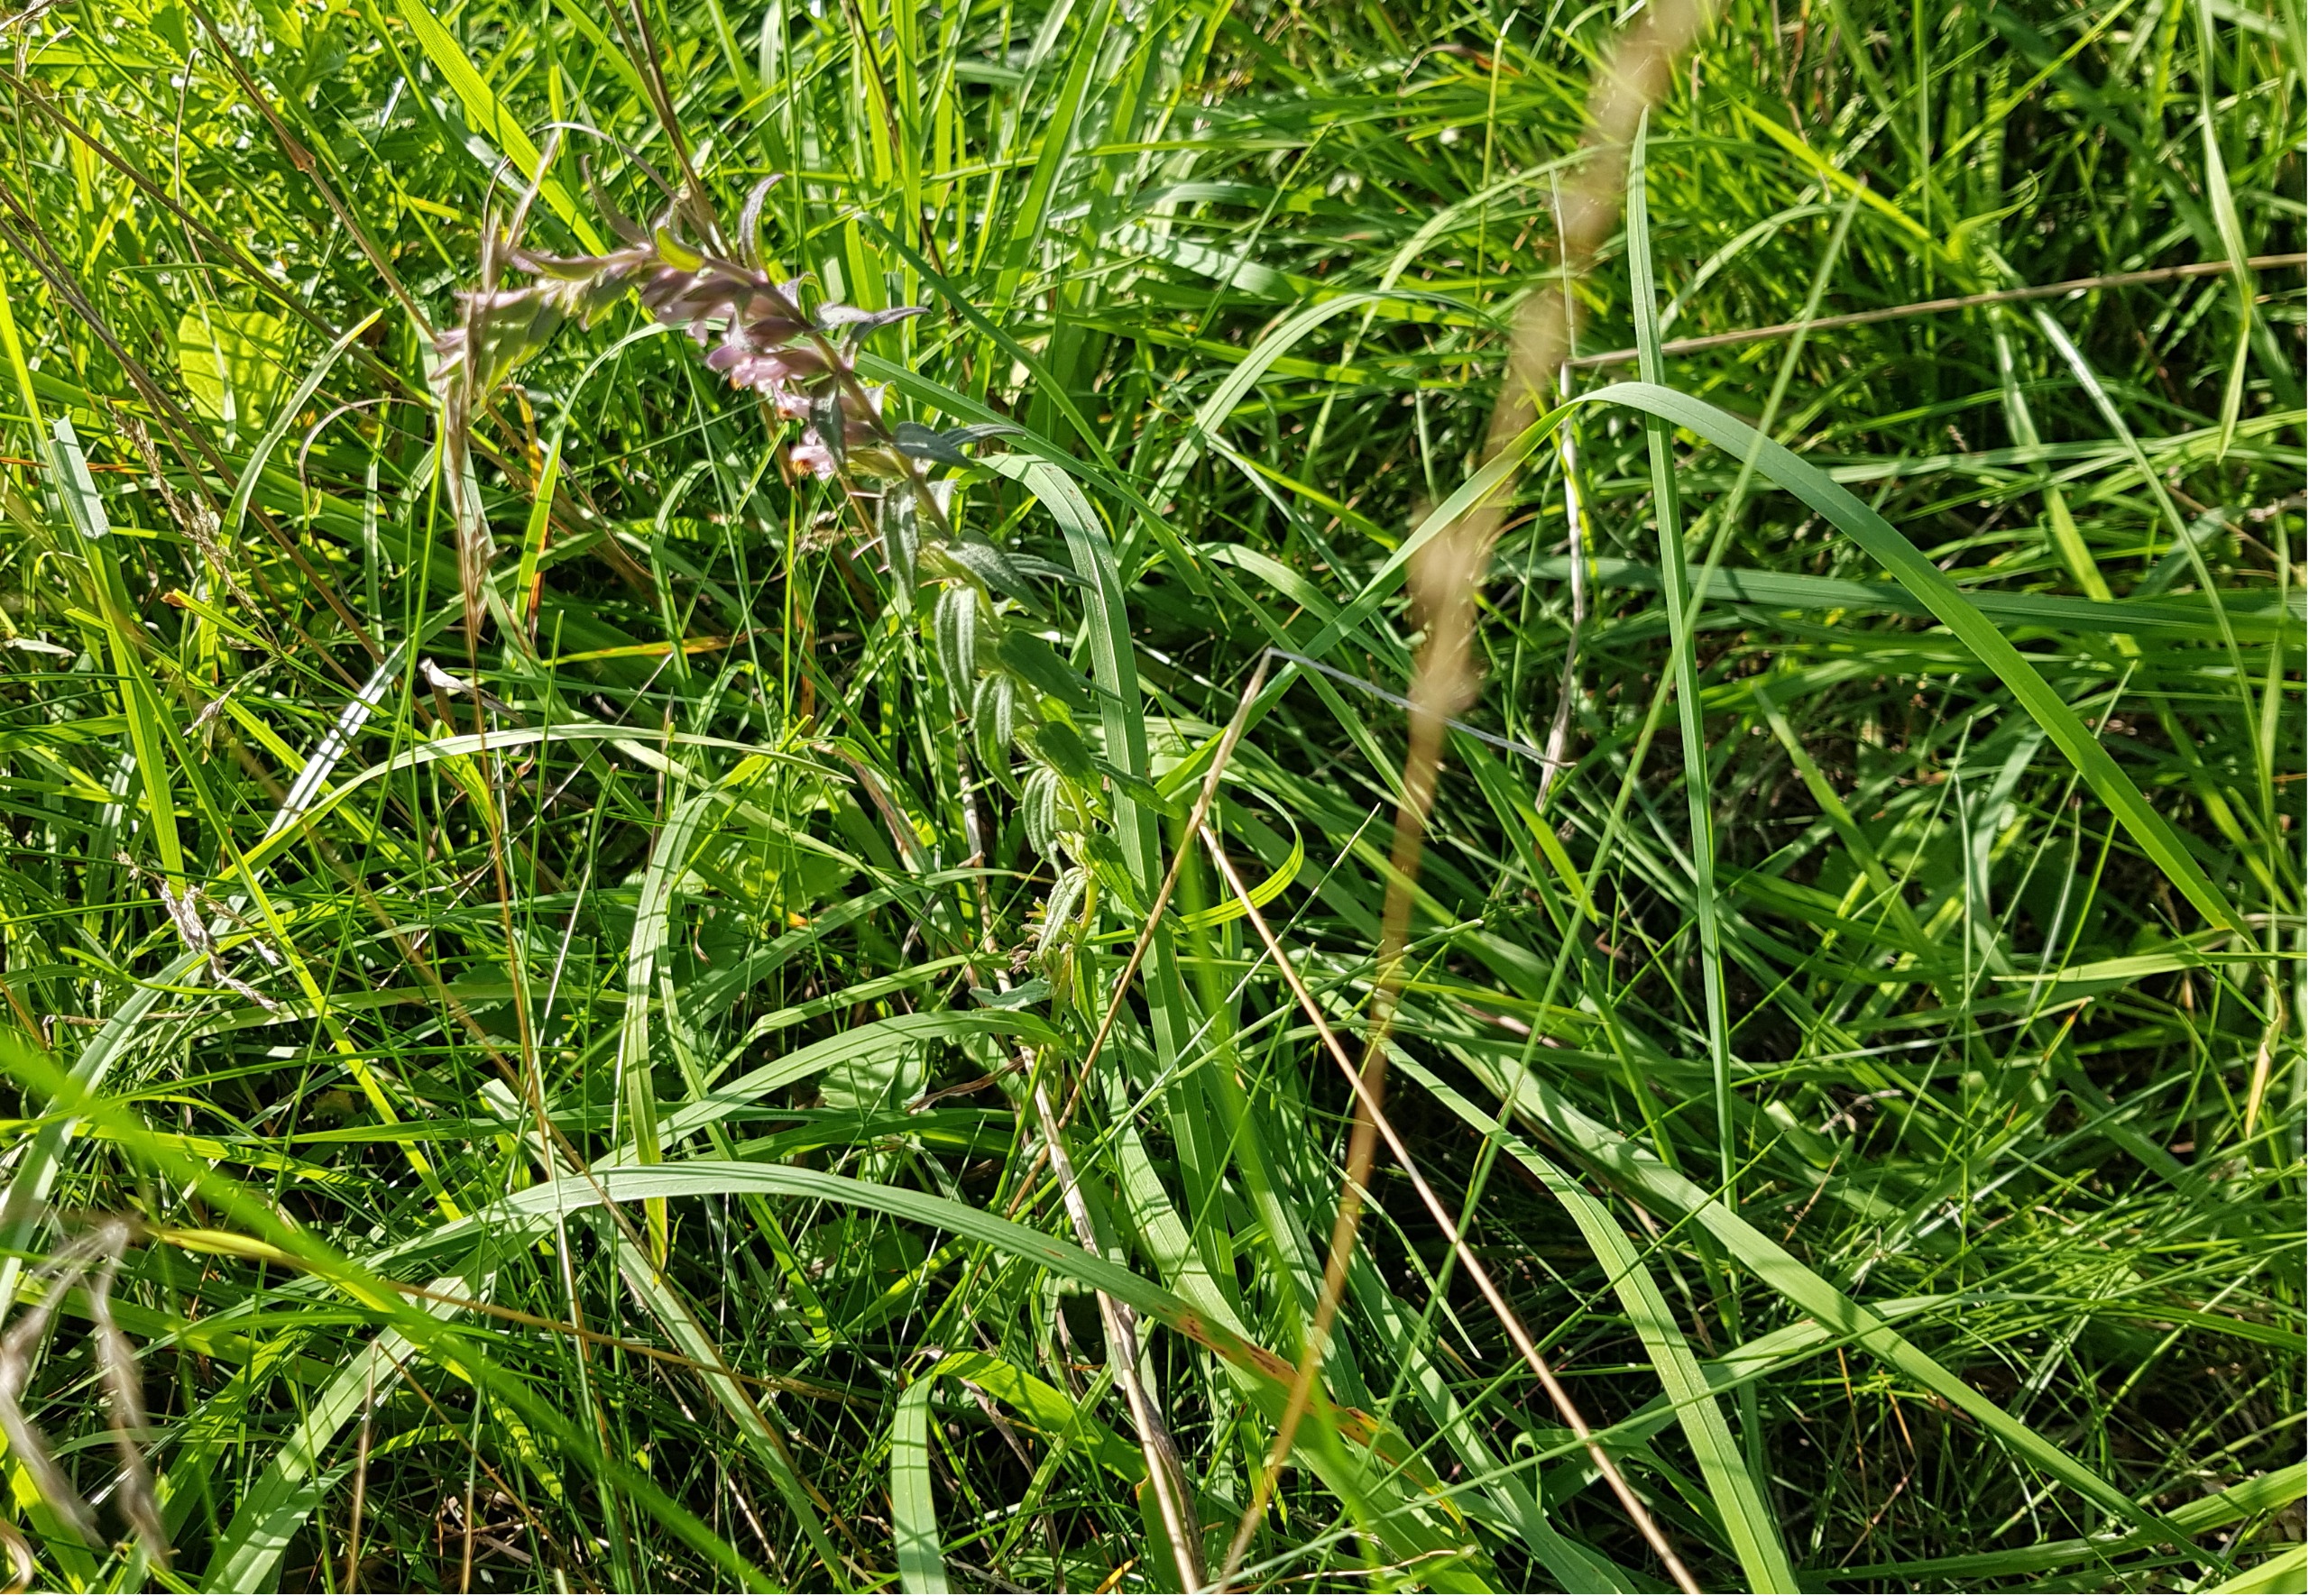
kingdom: Plantae
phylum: Tracheophyta
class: Magnoliopsida
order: Lamiales
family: Orobanchaceae
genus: Odontites
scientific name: Odontites vulgaris
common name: Høst-rødtop
